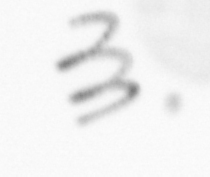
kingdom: Animalia
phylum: Annelida
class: Polychaeta
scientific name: Polychaeta
